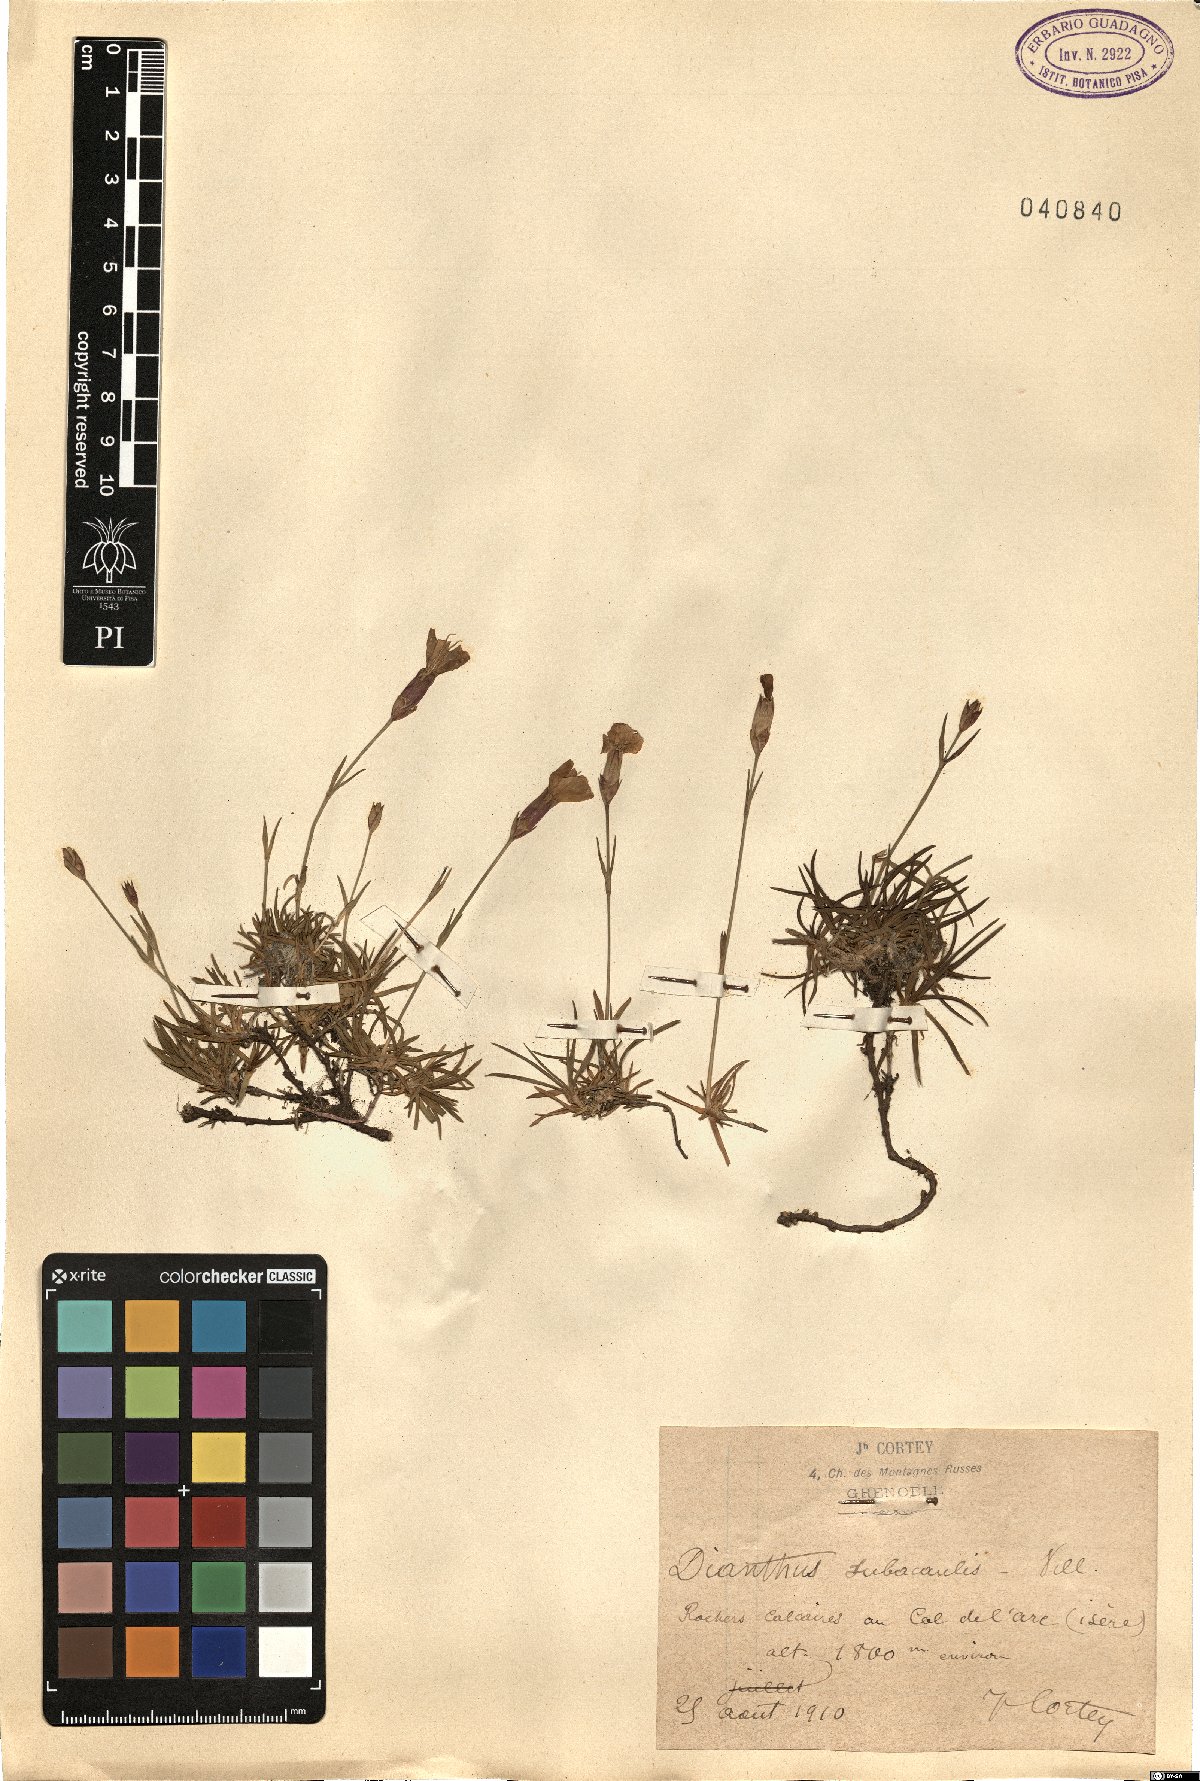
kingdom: Plantae
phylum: Tracheophyta
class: Magnoliopsida
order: Caryophyllales
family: Caryophyllaceae
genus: Dianthus
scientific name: Dianthus subacaulis
